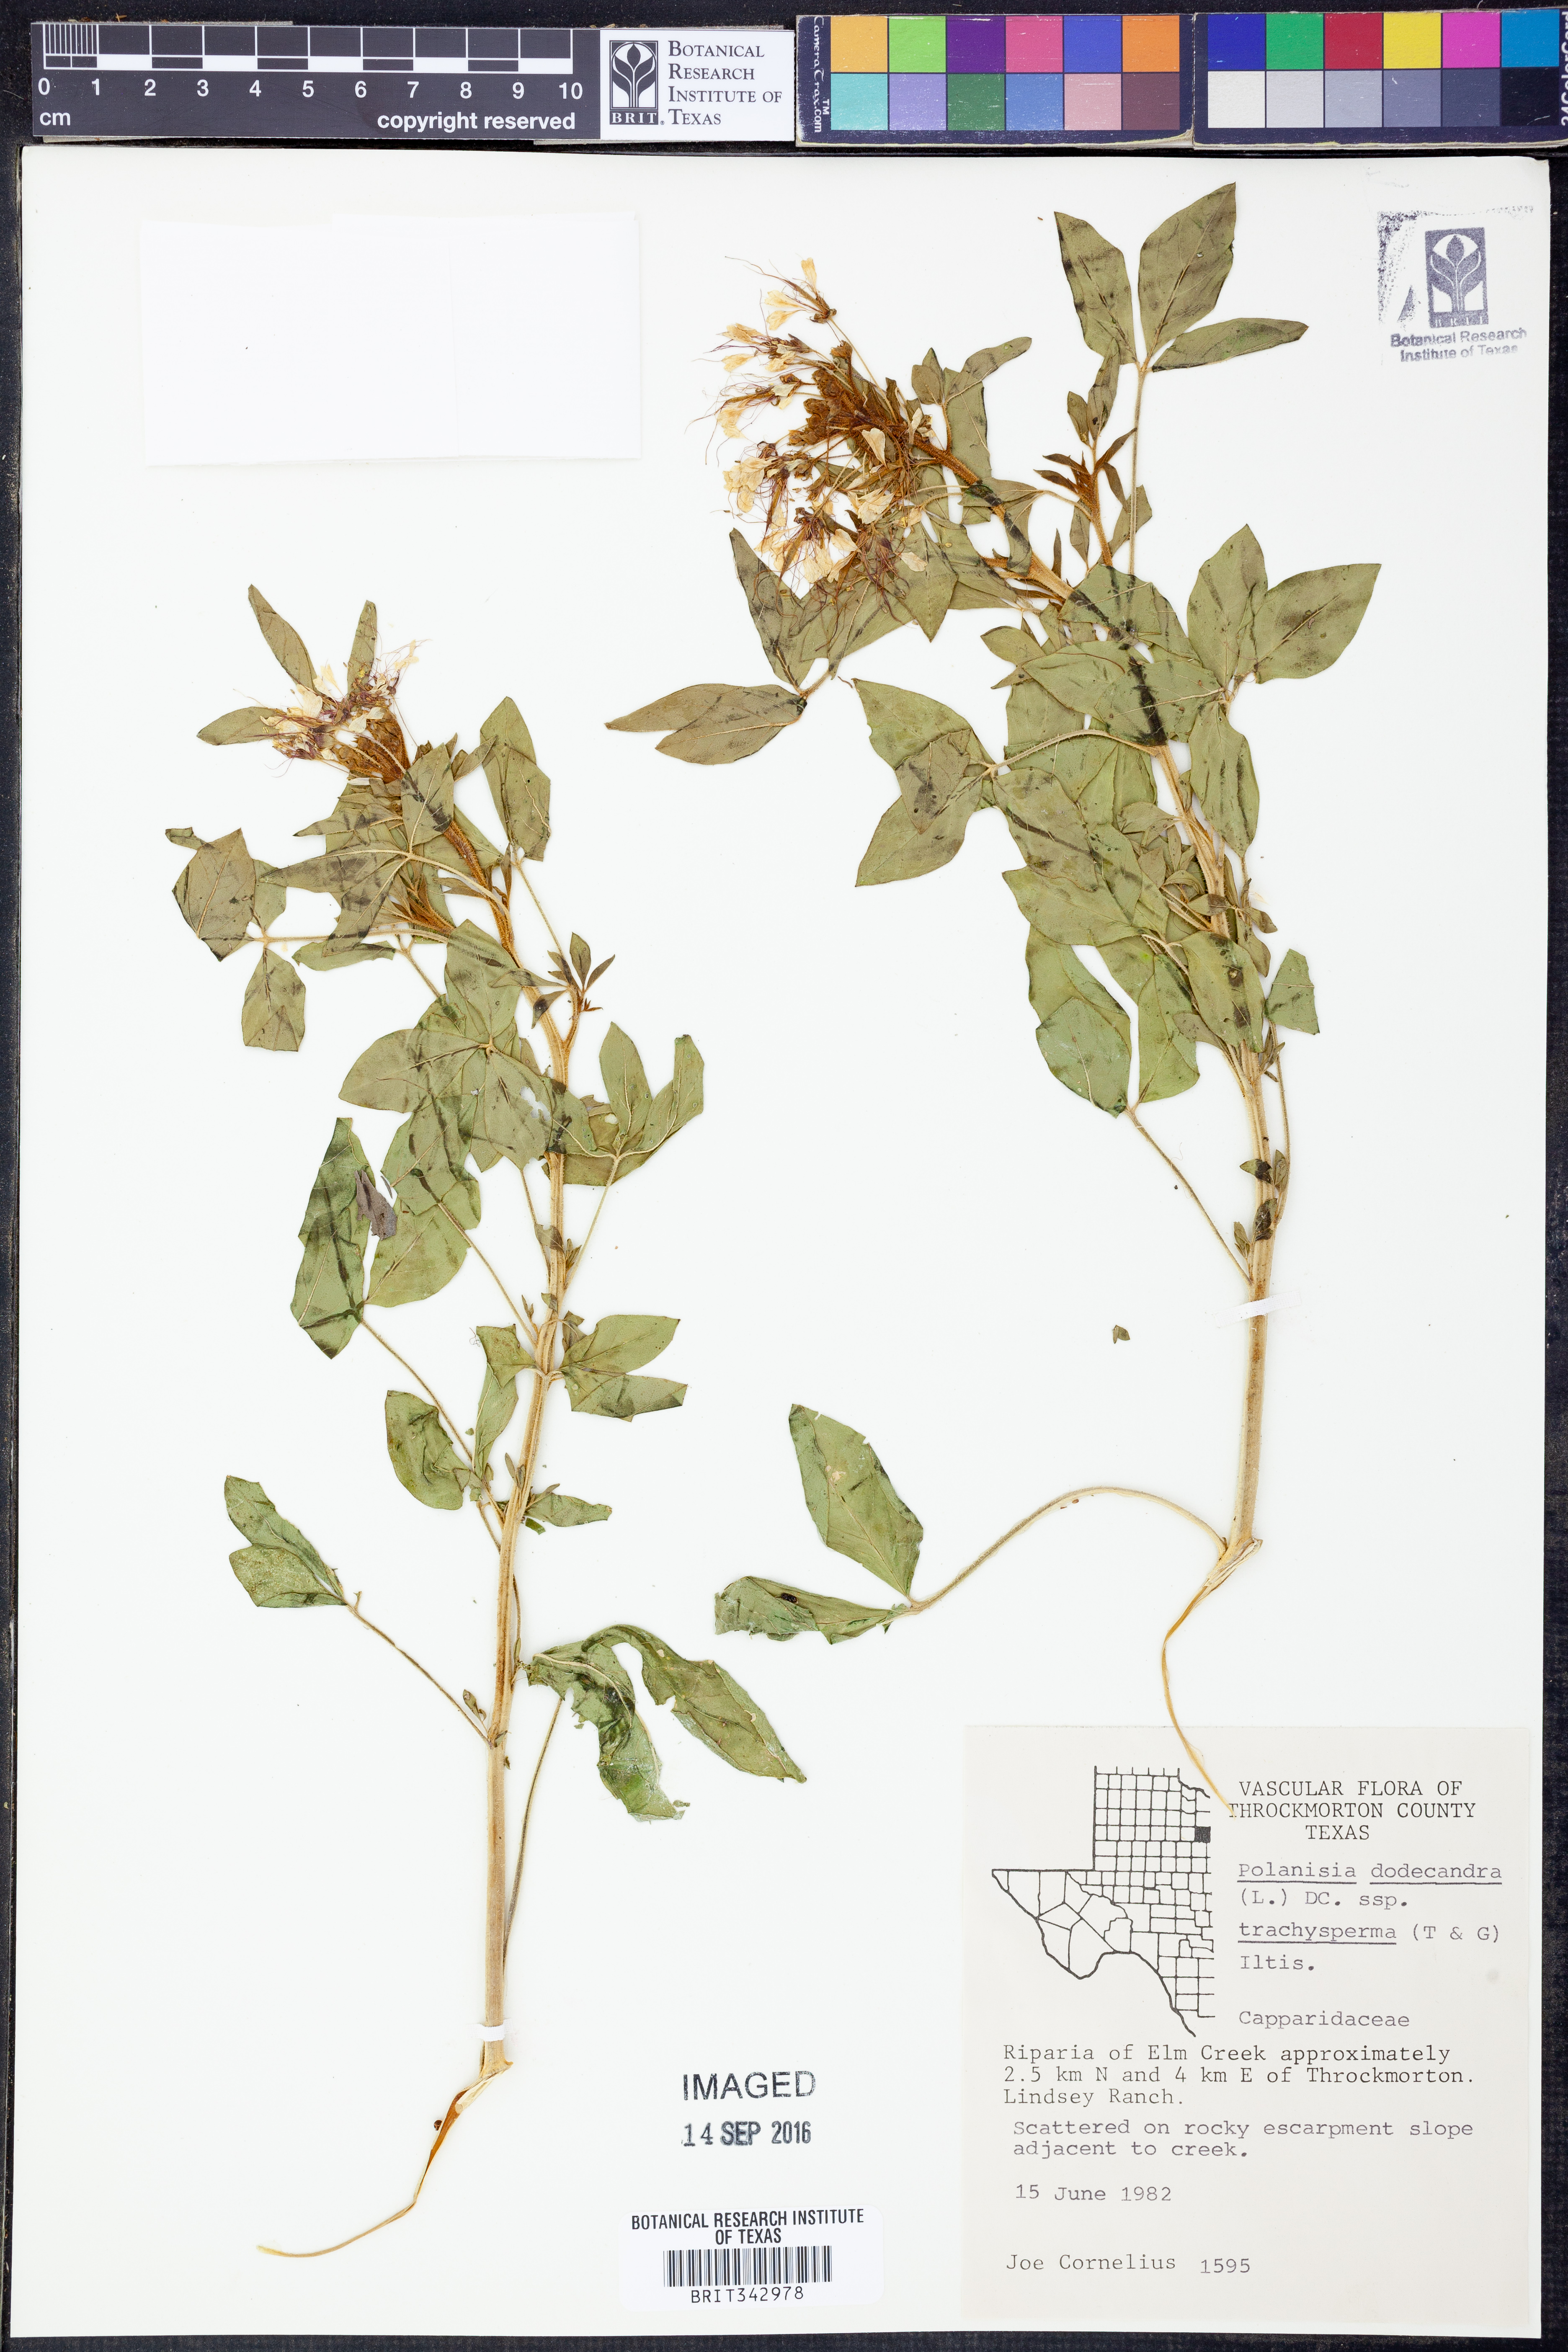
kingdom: Plantae
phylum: Tracheophyta
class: Magnoliopsida
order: Brassicales
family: Cleomaceae
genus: Polanisia
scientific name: Polanisia trachysperma
